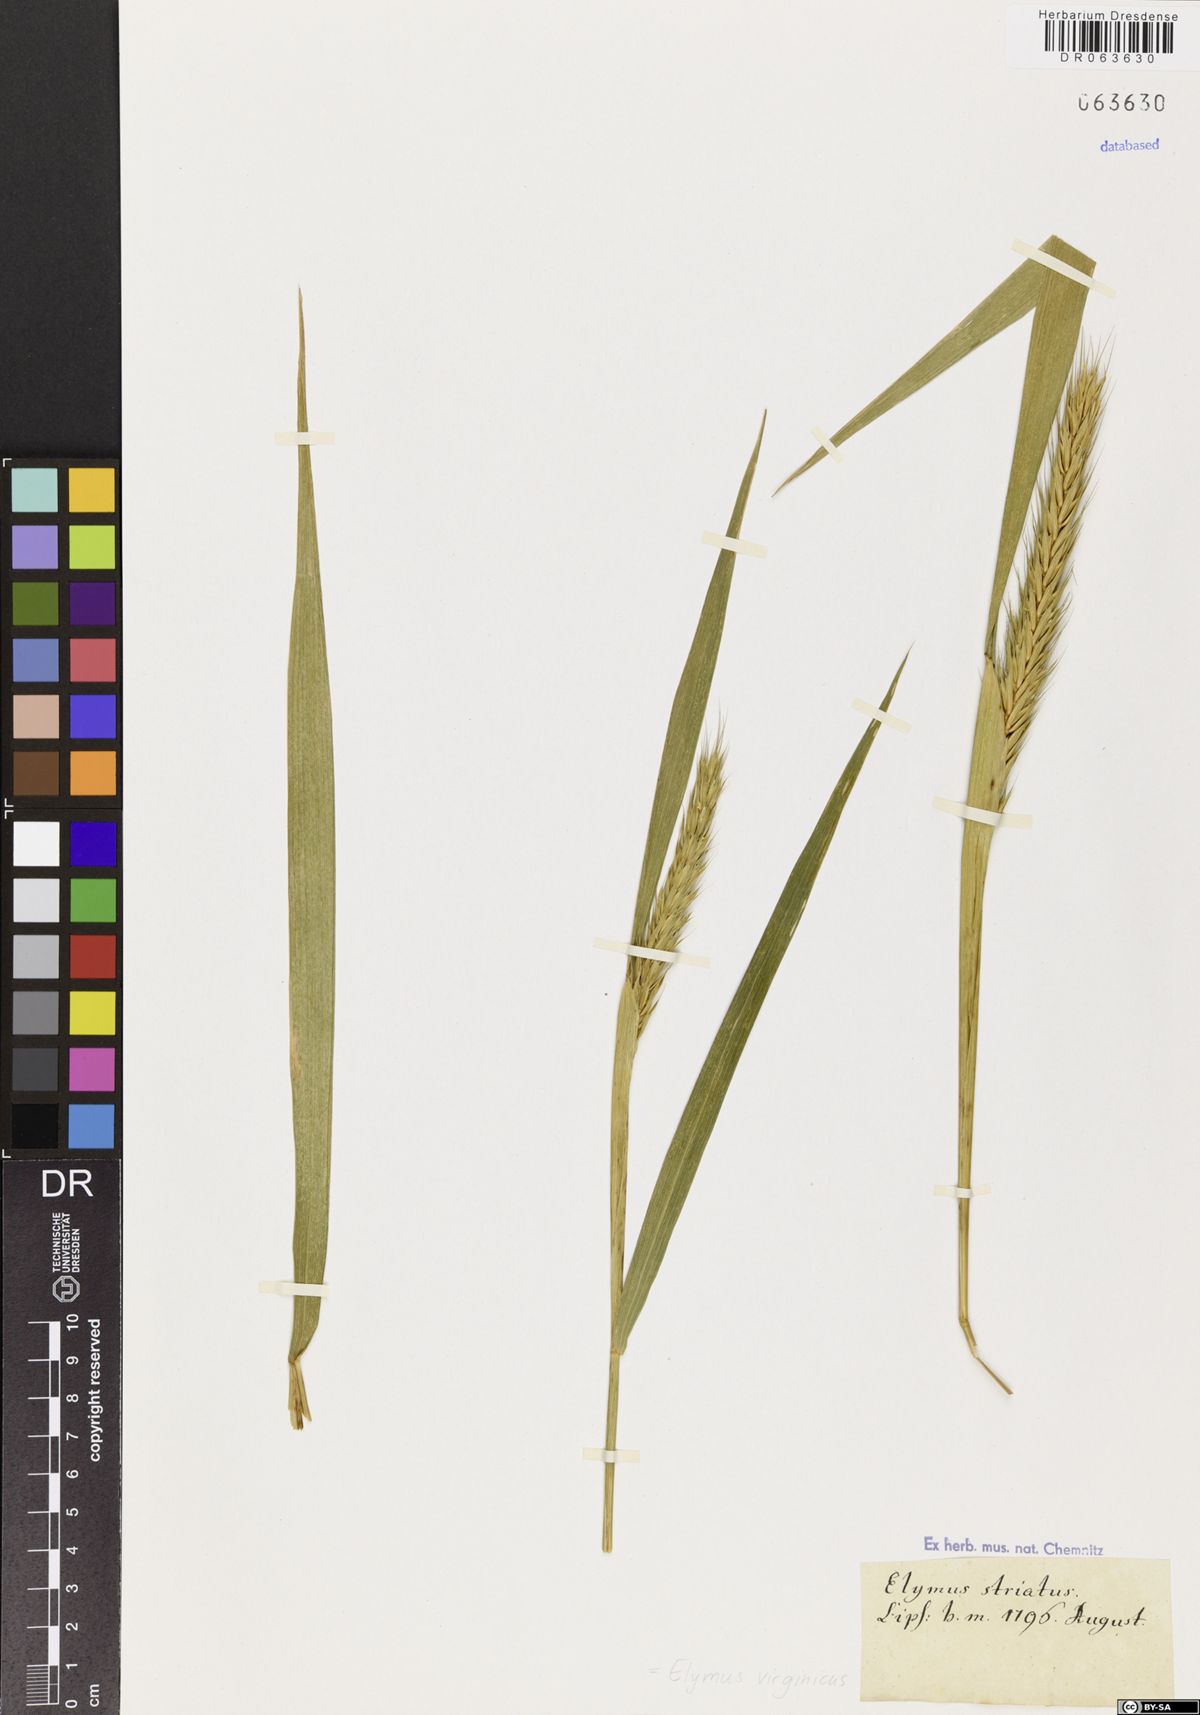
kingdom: Plantae
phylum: Tracheophyta
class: Liliopsida
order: Poales
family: Poaceae
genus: Elymus
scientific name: Elymus virginicus
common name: Common eastern wildrye
